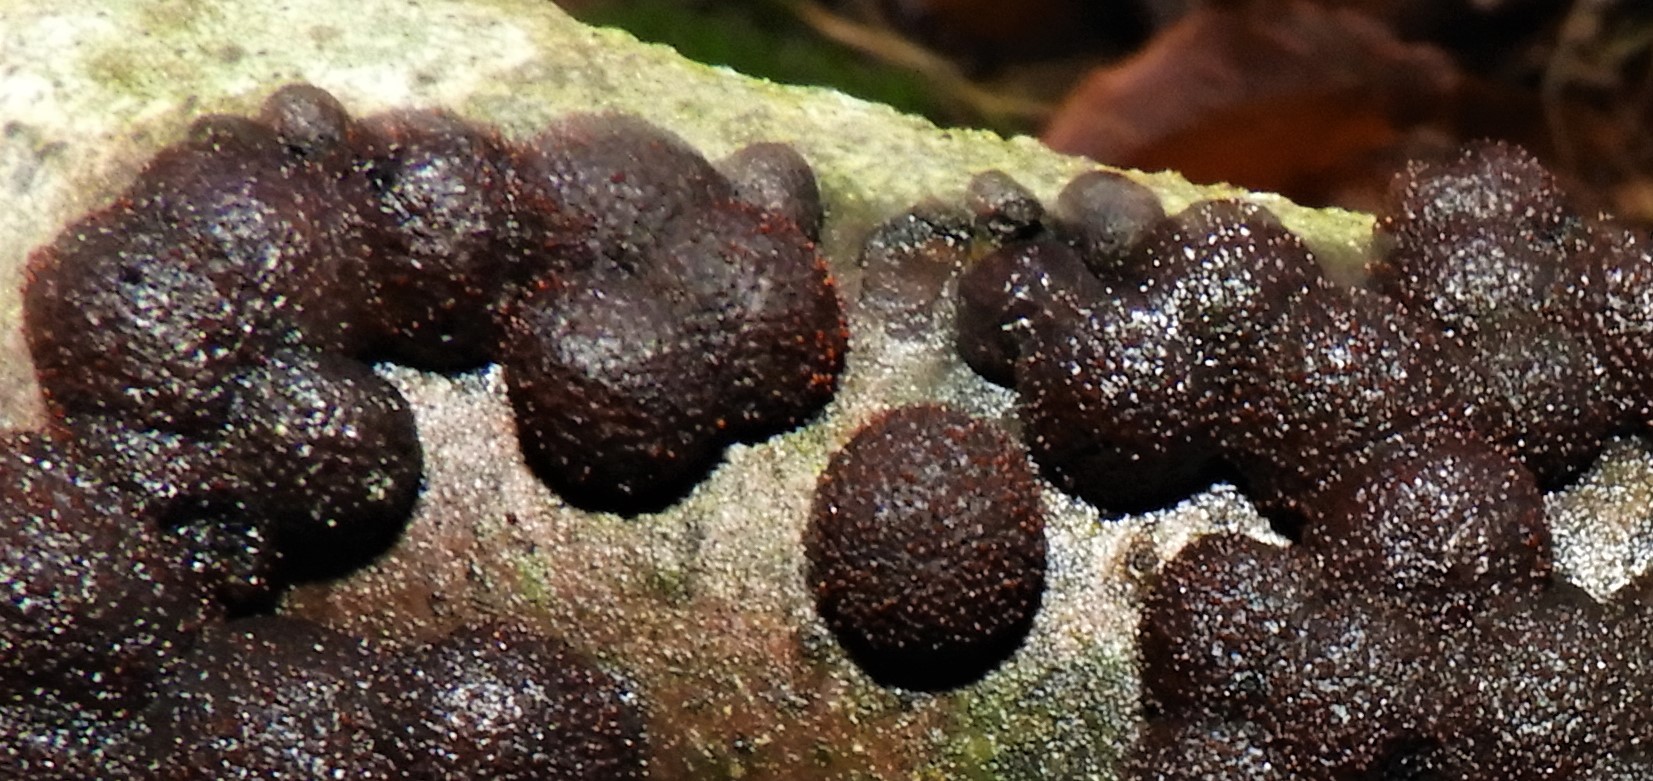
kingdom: Fungi
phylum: Ascomycota
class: Sordariomycetes
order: Xylariales
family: Hypoxylaceae
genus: Hypoxylon
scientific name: Hypoxylon fragiforme
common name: kuljordbær
